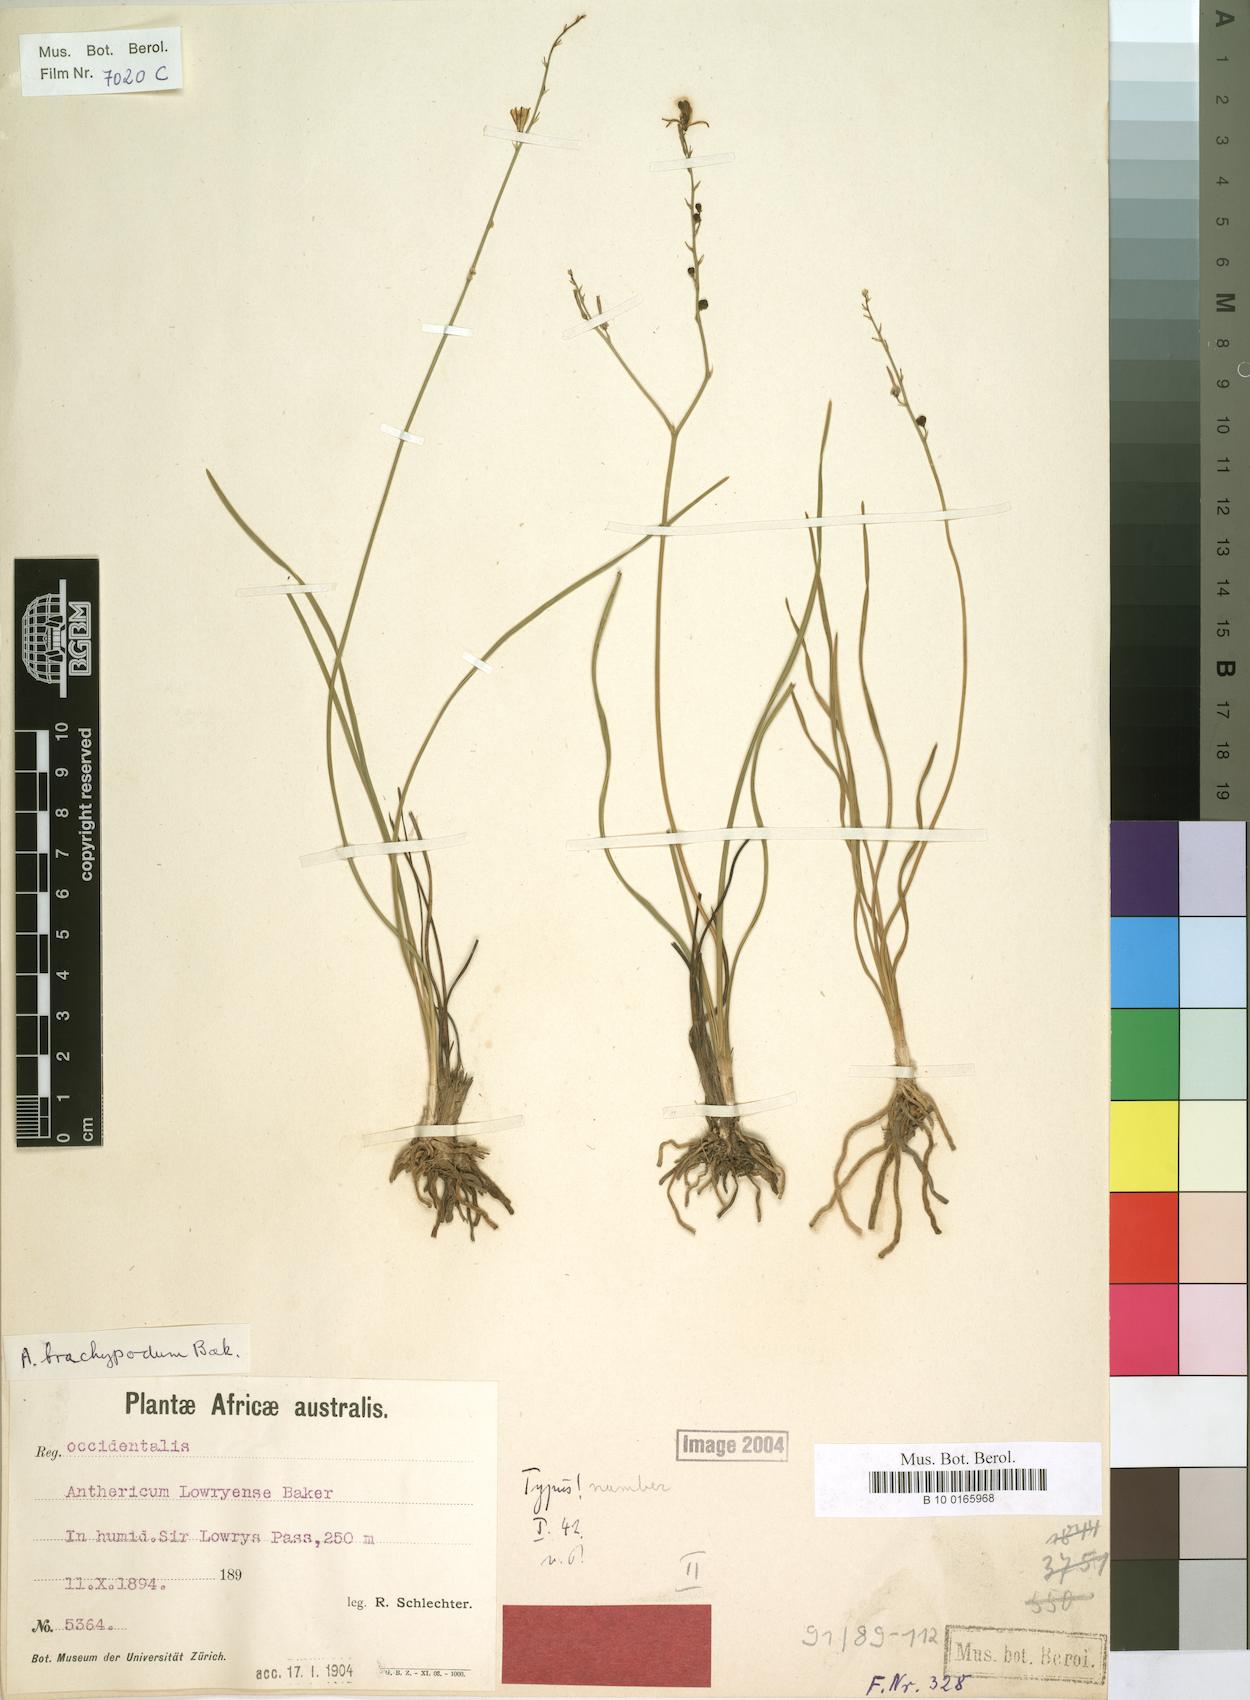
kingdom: Plantae
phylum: Tracheophyta
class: Liliopsida
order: Asparagales
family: Asphodelaceae
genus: Trachyandra
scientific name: Trachyandra brachypoda
